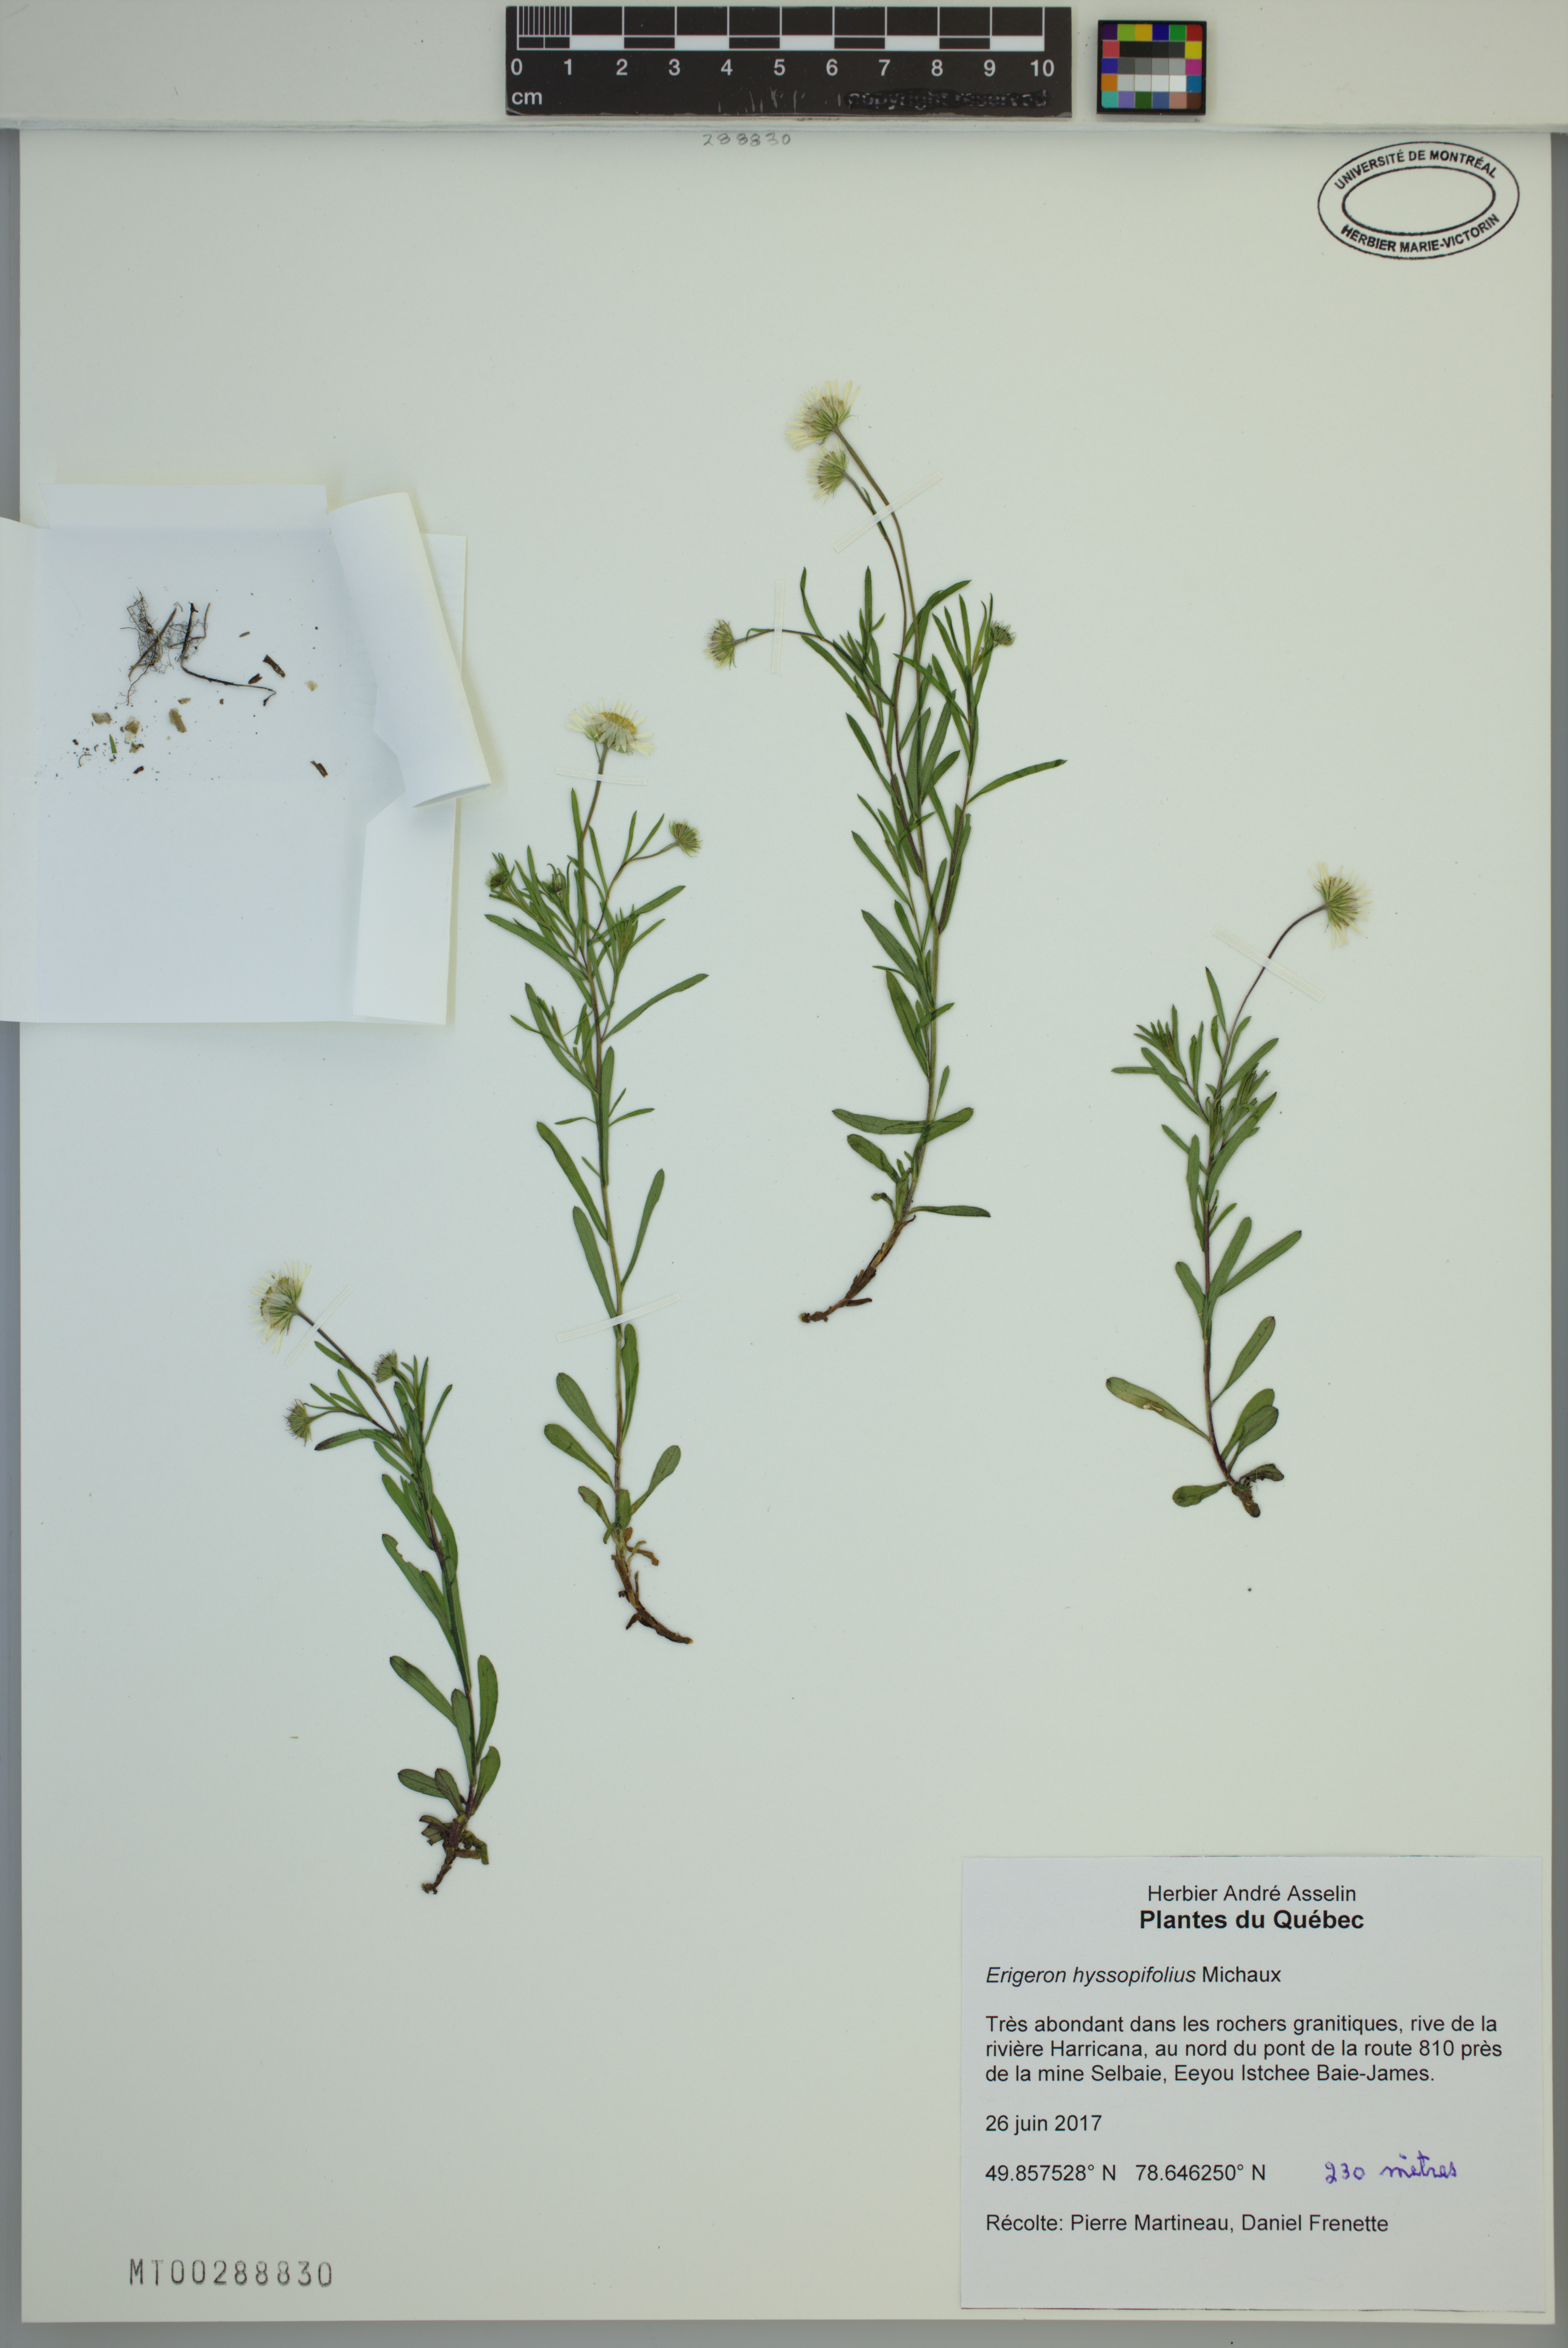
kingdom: Plantae
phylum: Tracheophyta
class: Magnoliopsida
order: Asterales
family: Asteraceae
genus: Erigeron
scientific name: Erigeron hyssopifolius
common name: Daisy fleabane
